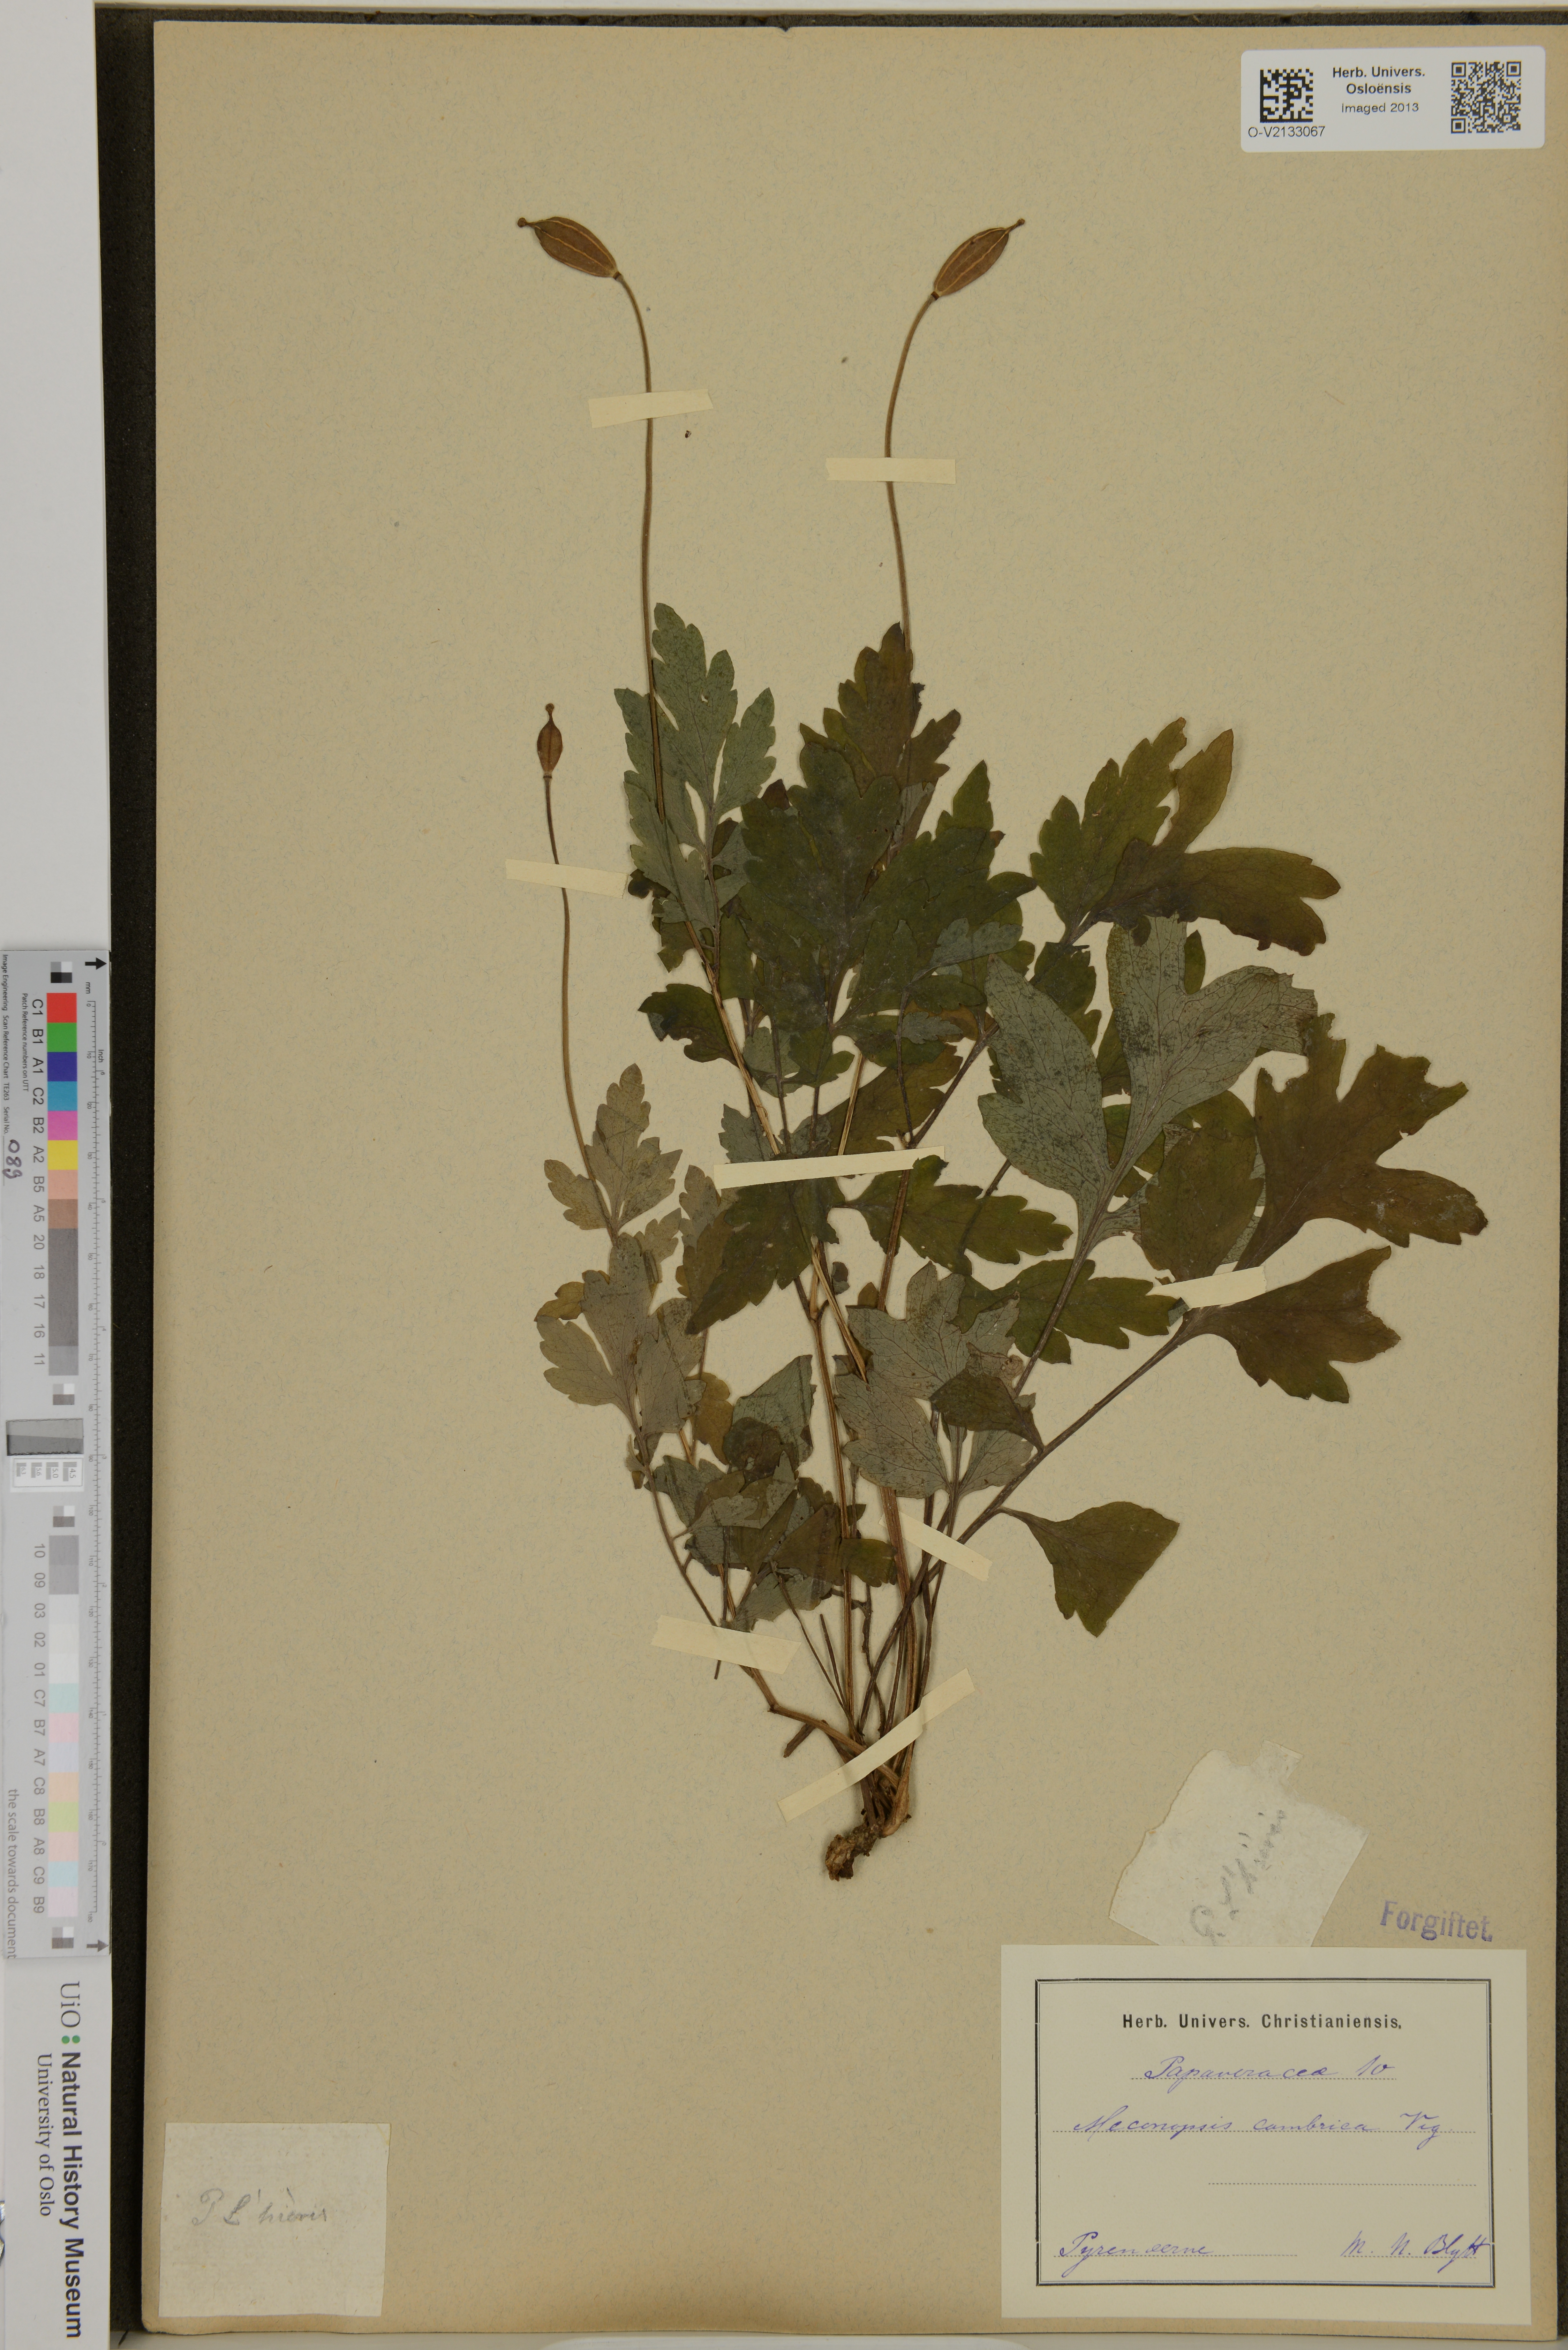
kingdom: Plantae
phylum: Tracheophyta
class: Magnoliopsida
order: Ranunculales
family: Papaveraceae
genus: Papaver
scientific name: Papaver cambricum
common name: Poppy
